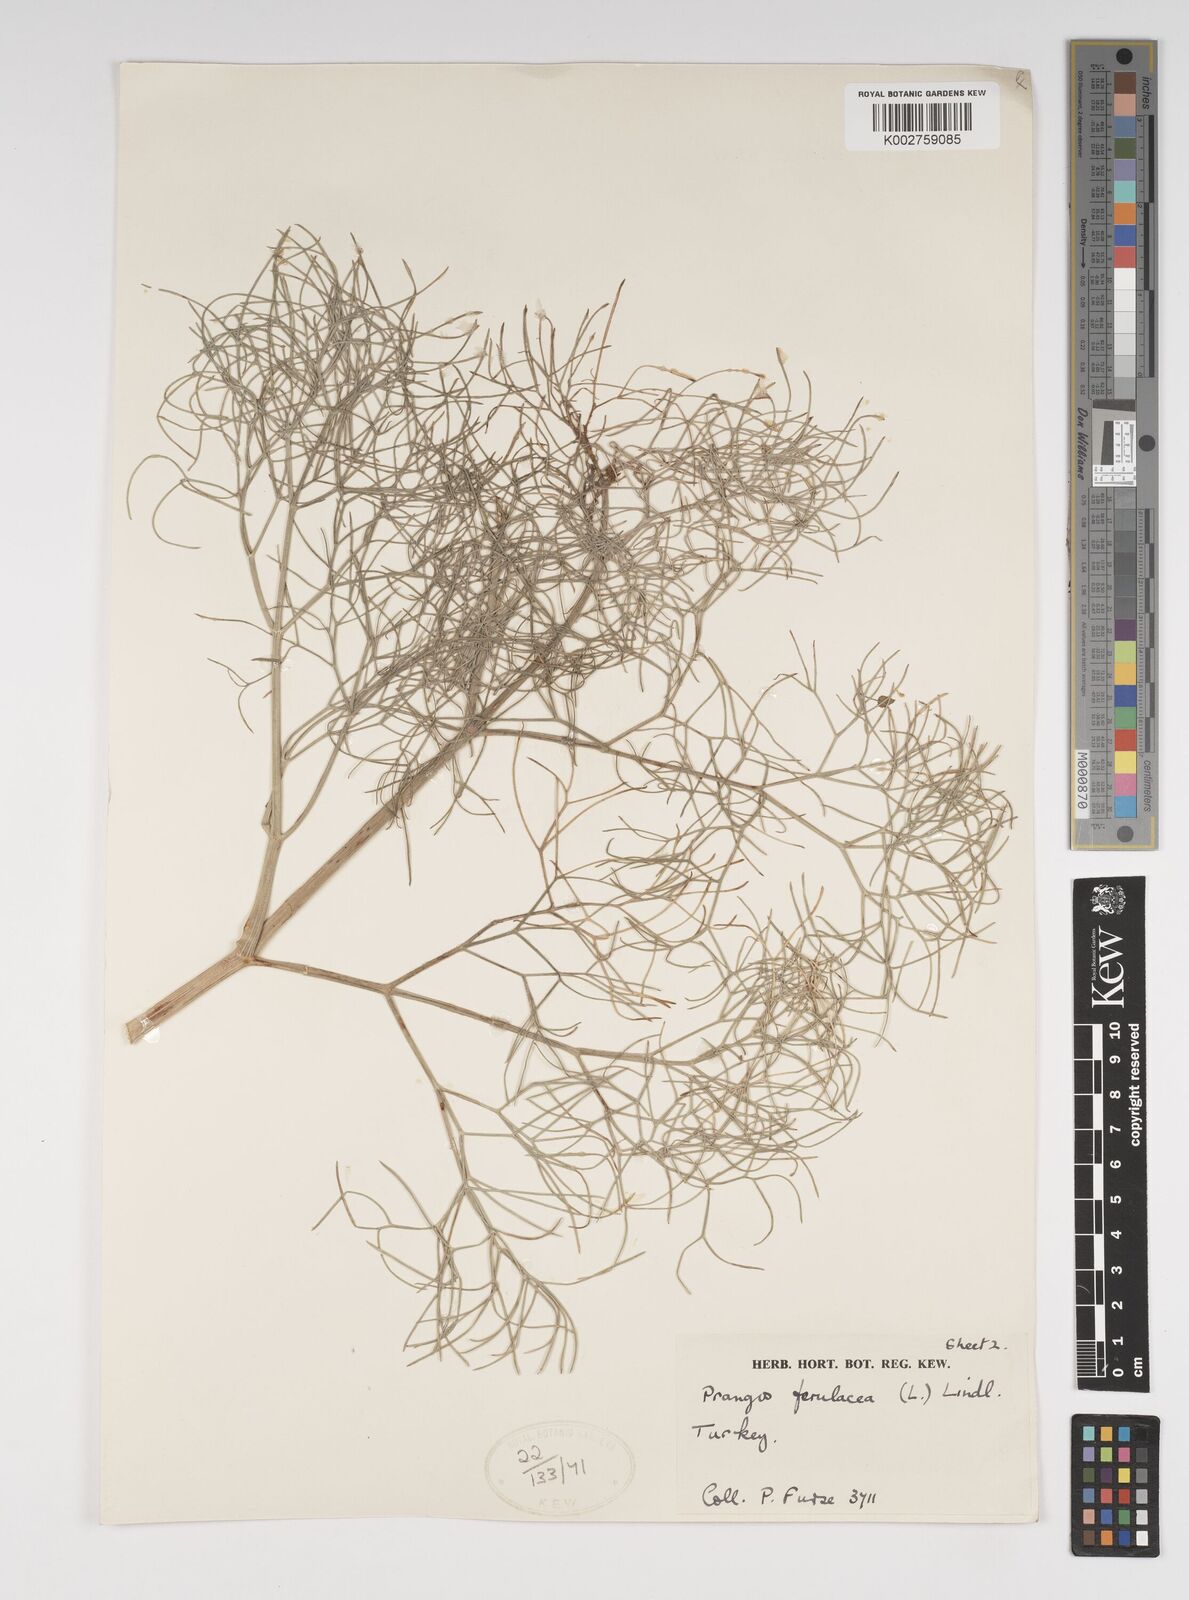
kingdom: Plantae
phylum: Tracheophyta
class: Magnoliopsida
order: Apiales
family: Apiaceae
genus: Prangos
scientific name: Prangos platychlaena
